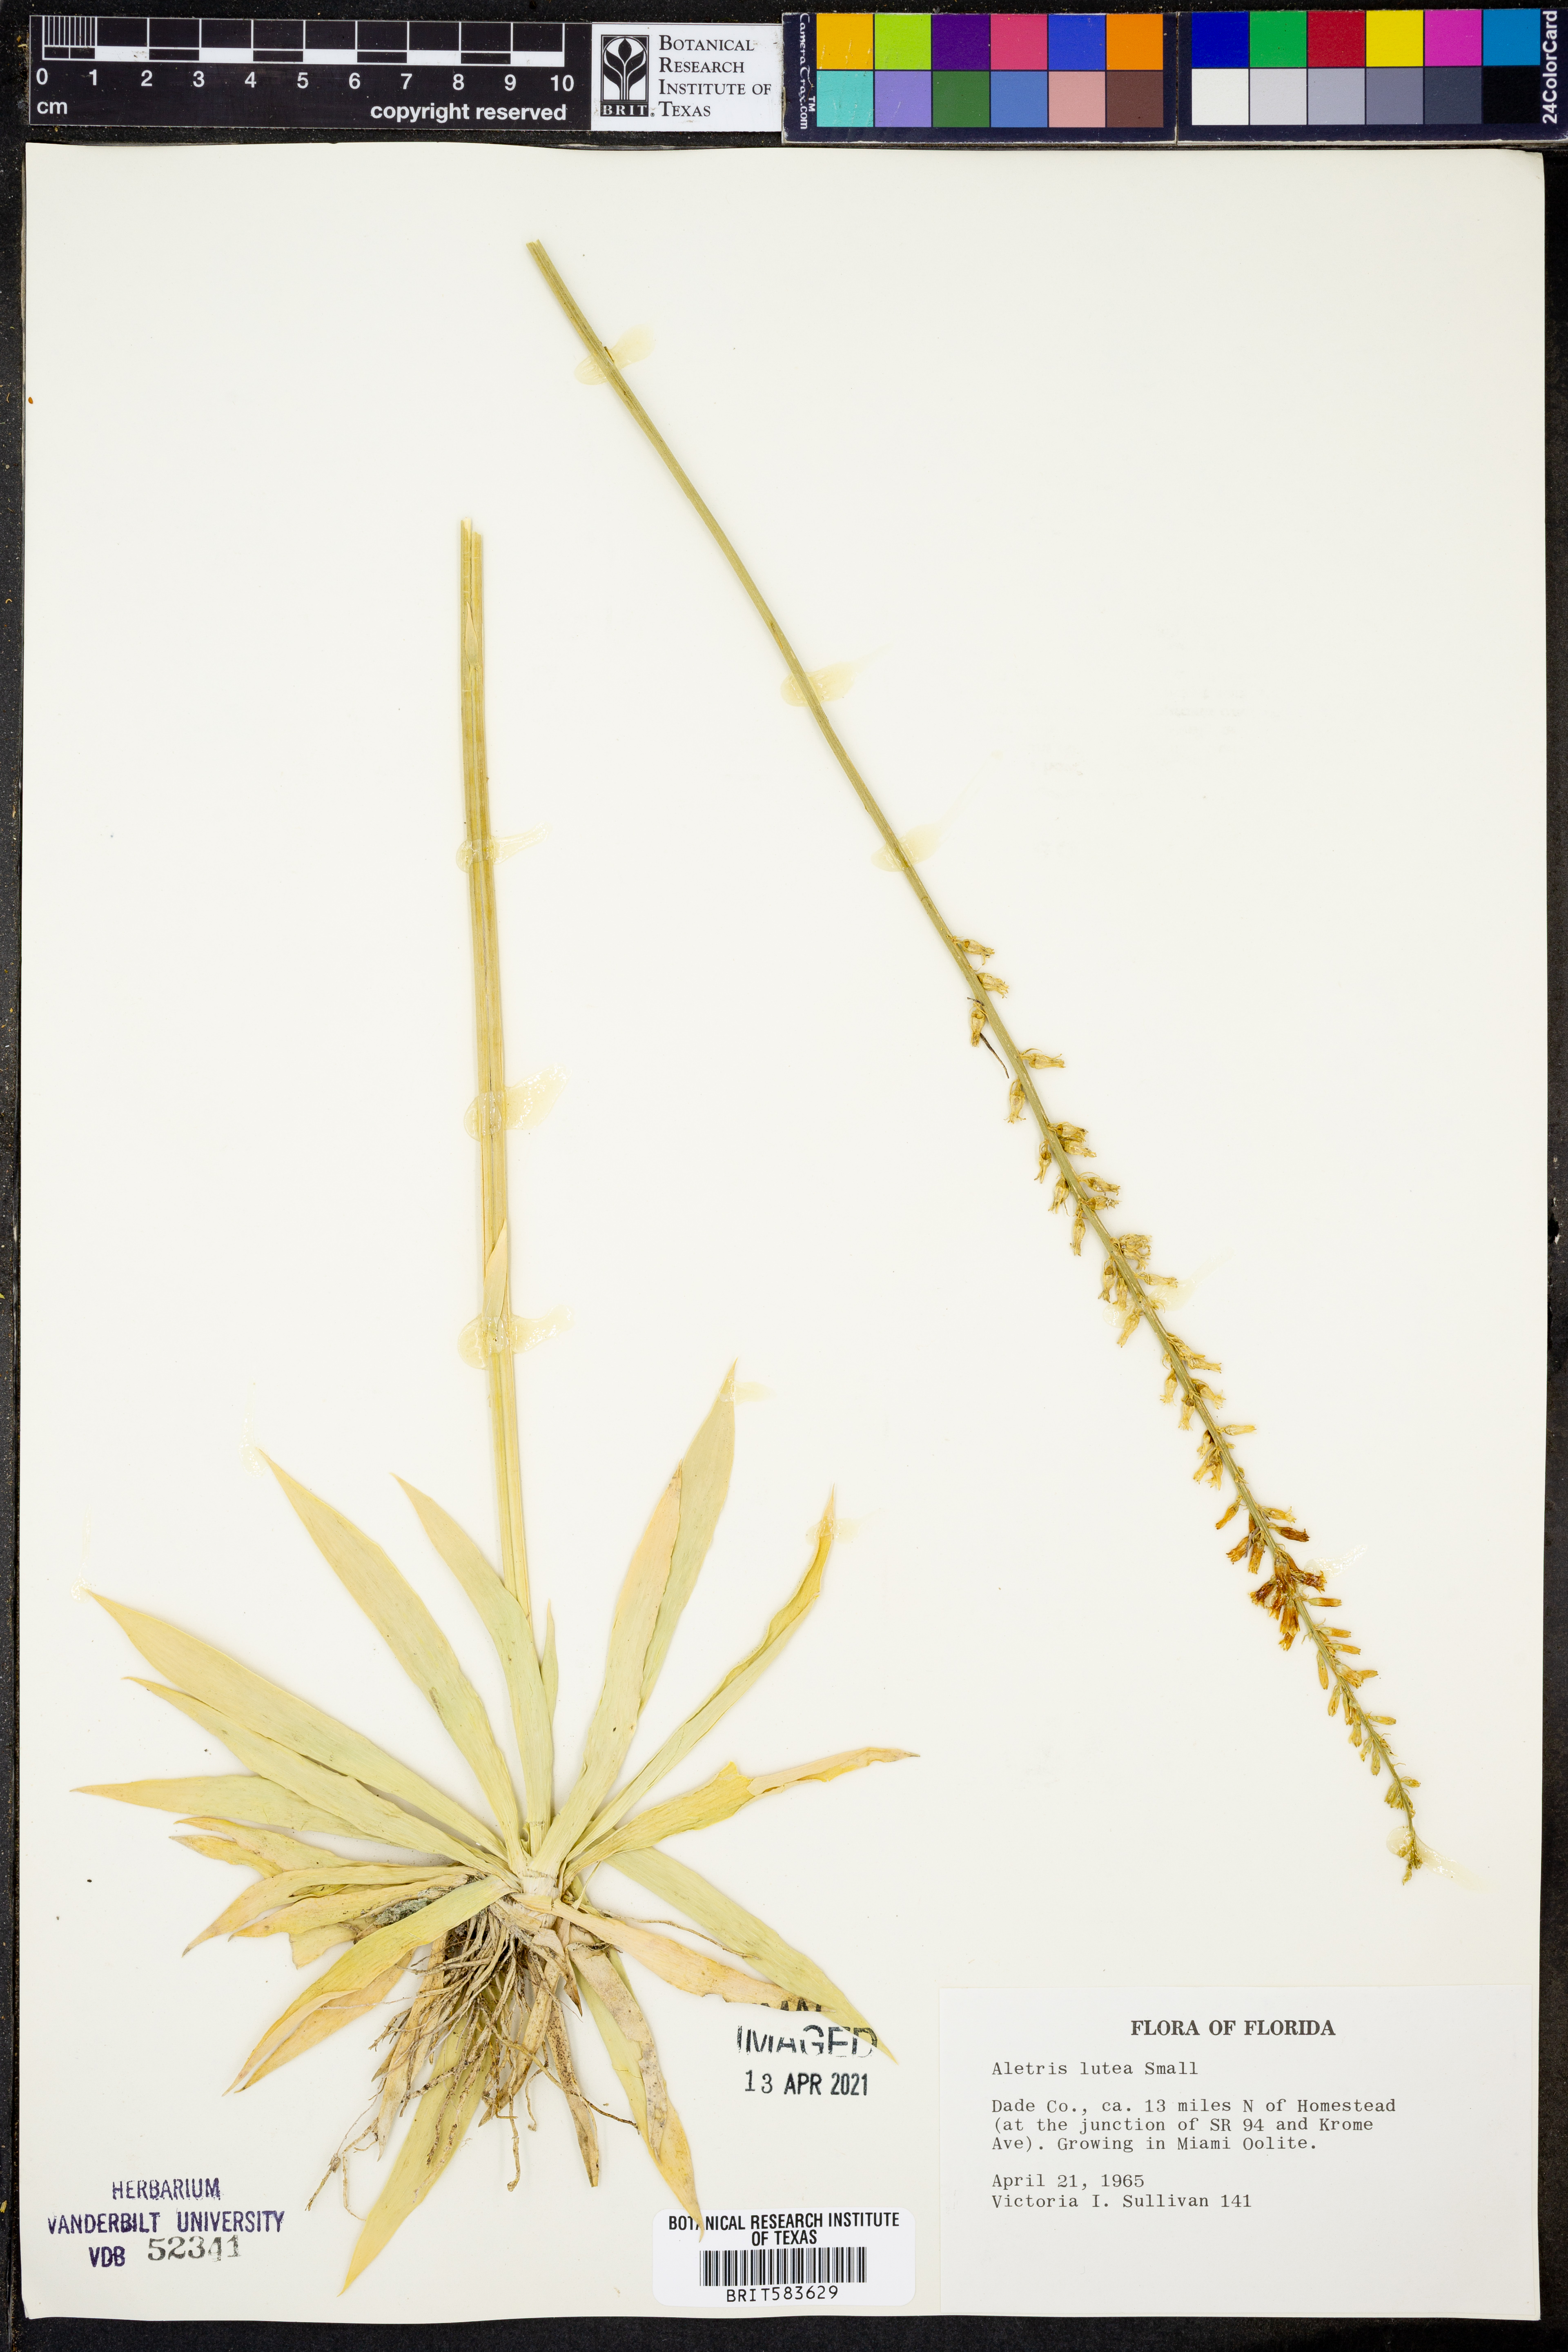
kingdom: Plantae
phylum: Tracheophyta
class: Liliopsida
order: Dioscoreales
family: Nartheciaceae
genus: Aletris
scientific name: Aletris lutea
